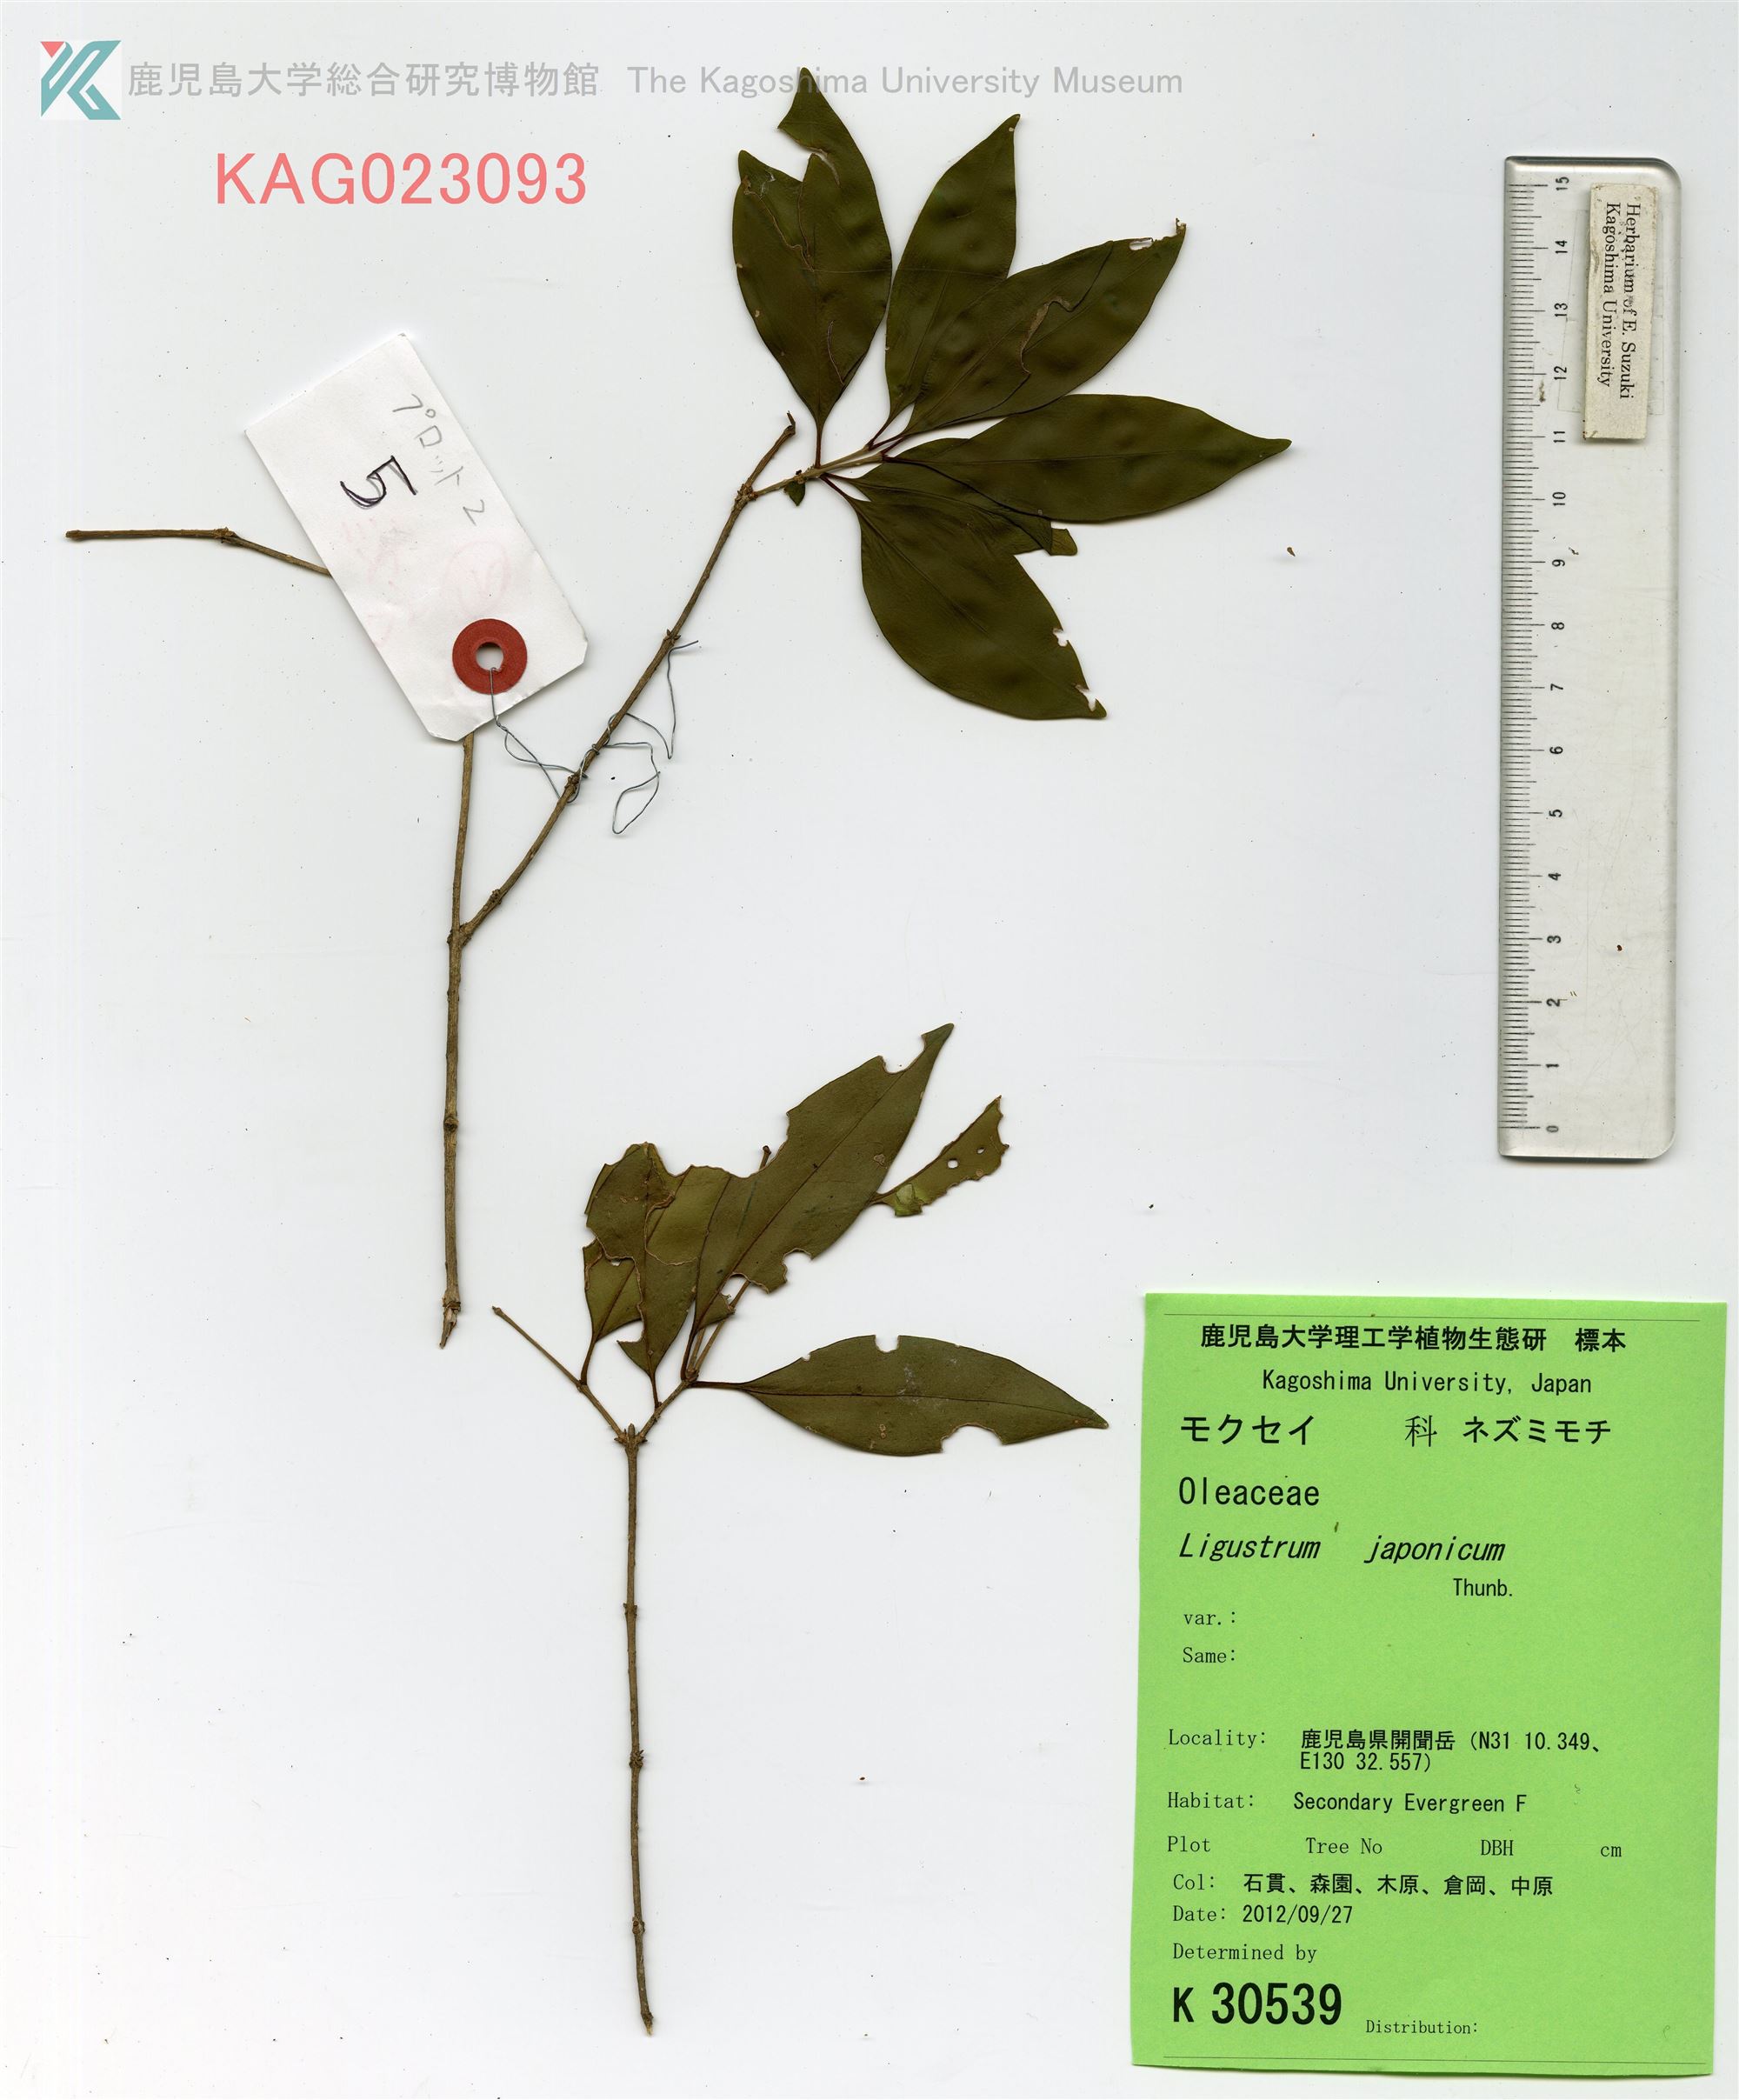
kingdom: Plantae
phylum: Tracheophyta
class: Magnoliopsida
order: Lamiales
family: Oleaceae
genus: Ligustrum
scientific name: Ligustrum japonicum
